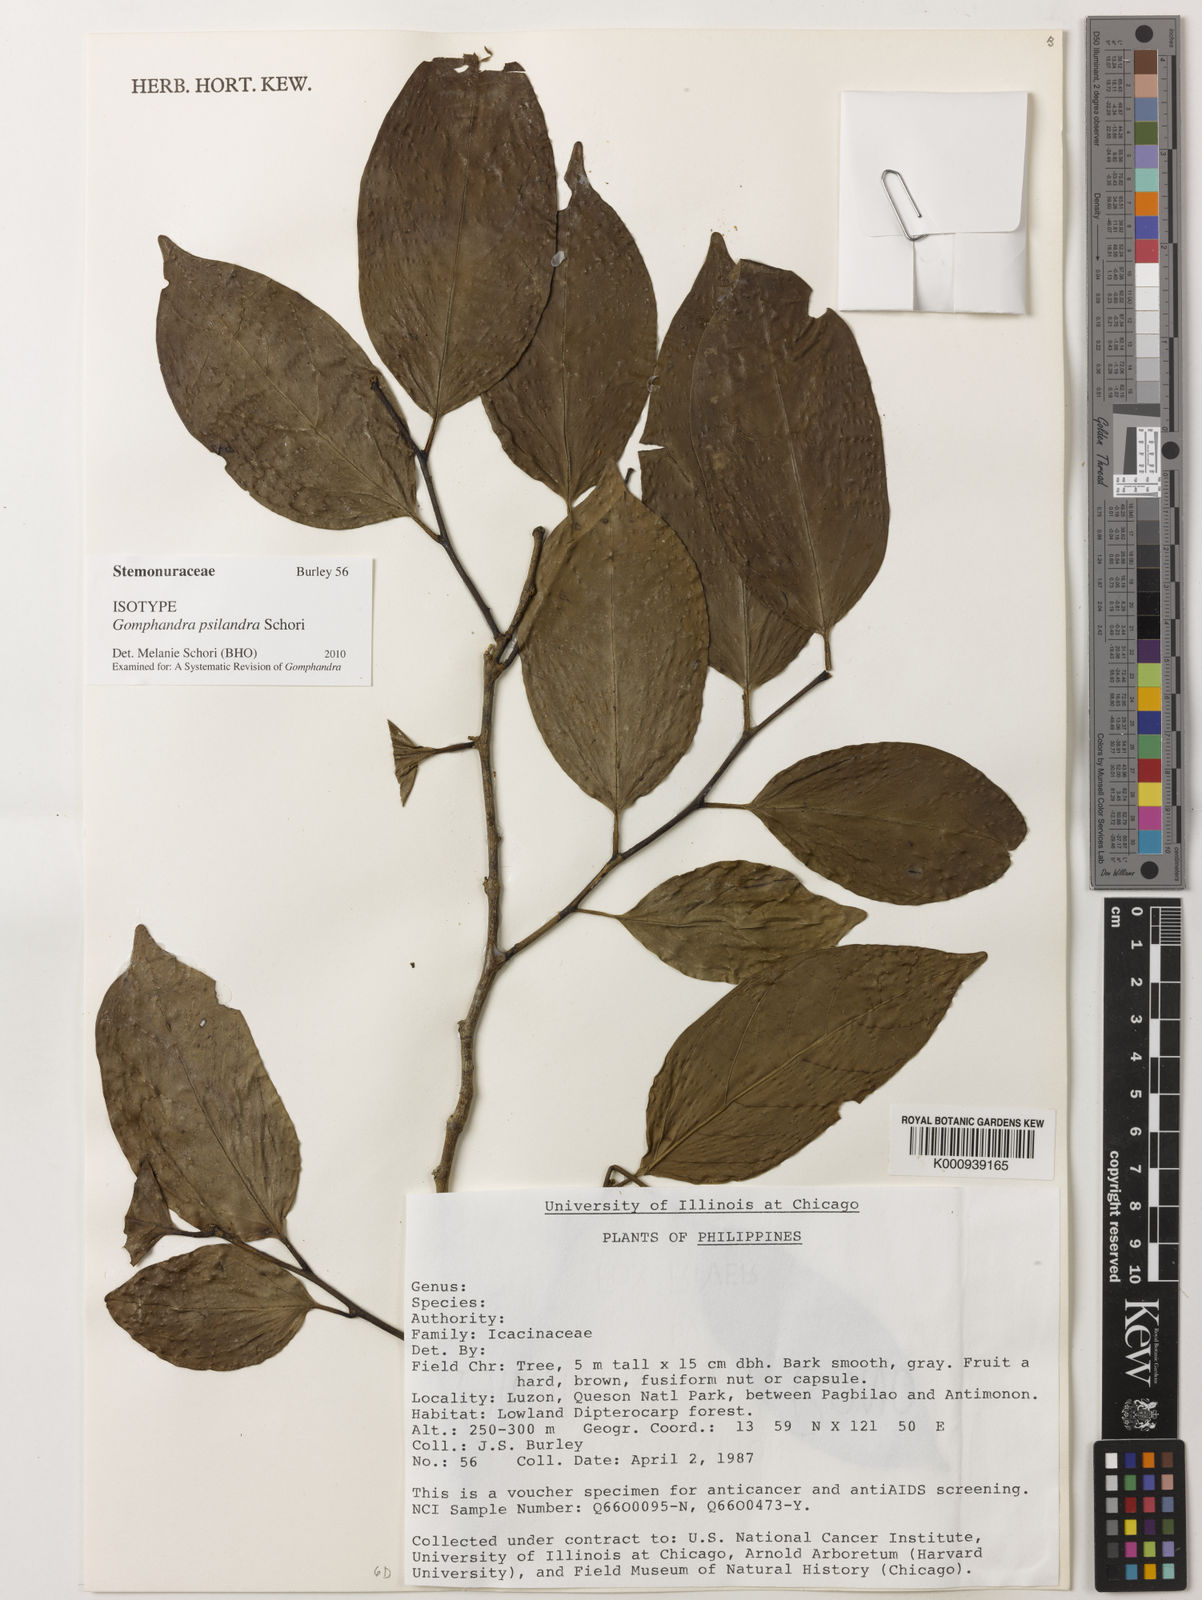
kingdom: Plantae
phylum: Tracheophyta
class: Magnoliopsida
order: Cardiopteridales
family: Stemonuraceae
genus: Gomphandra
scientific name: Gomphandra psilandra
